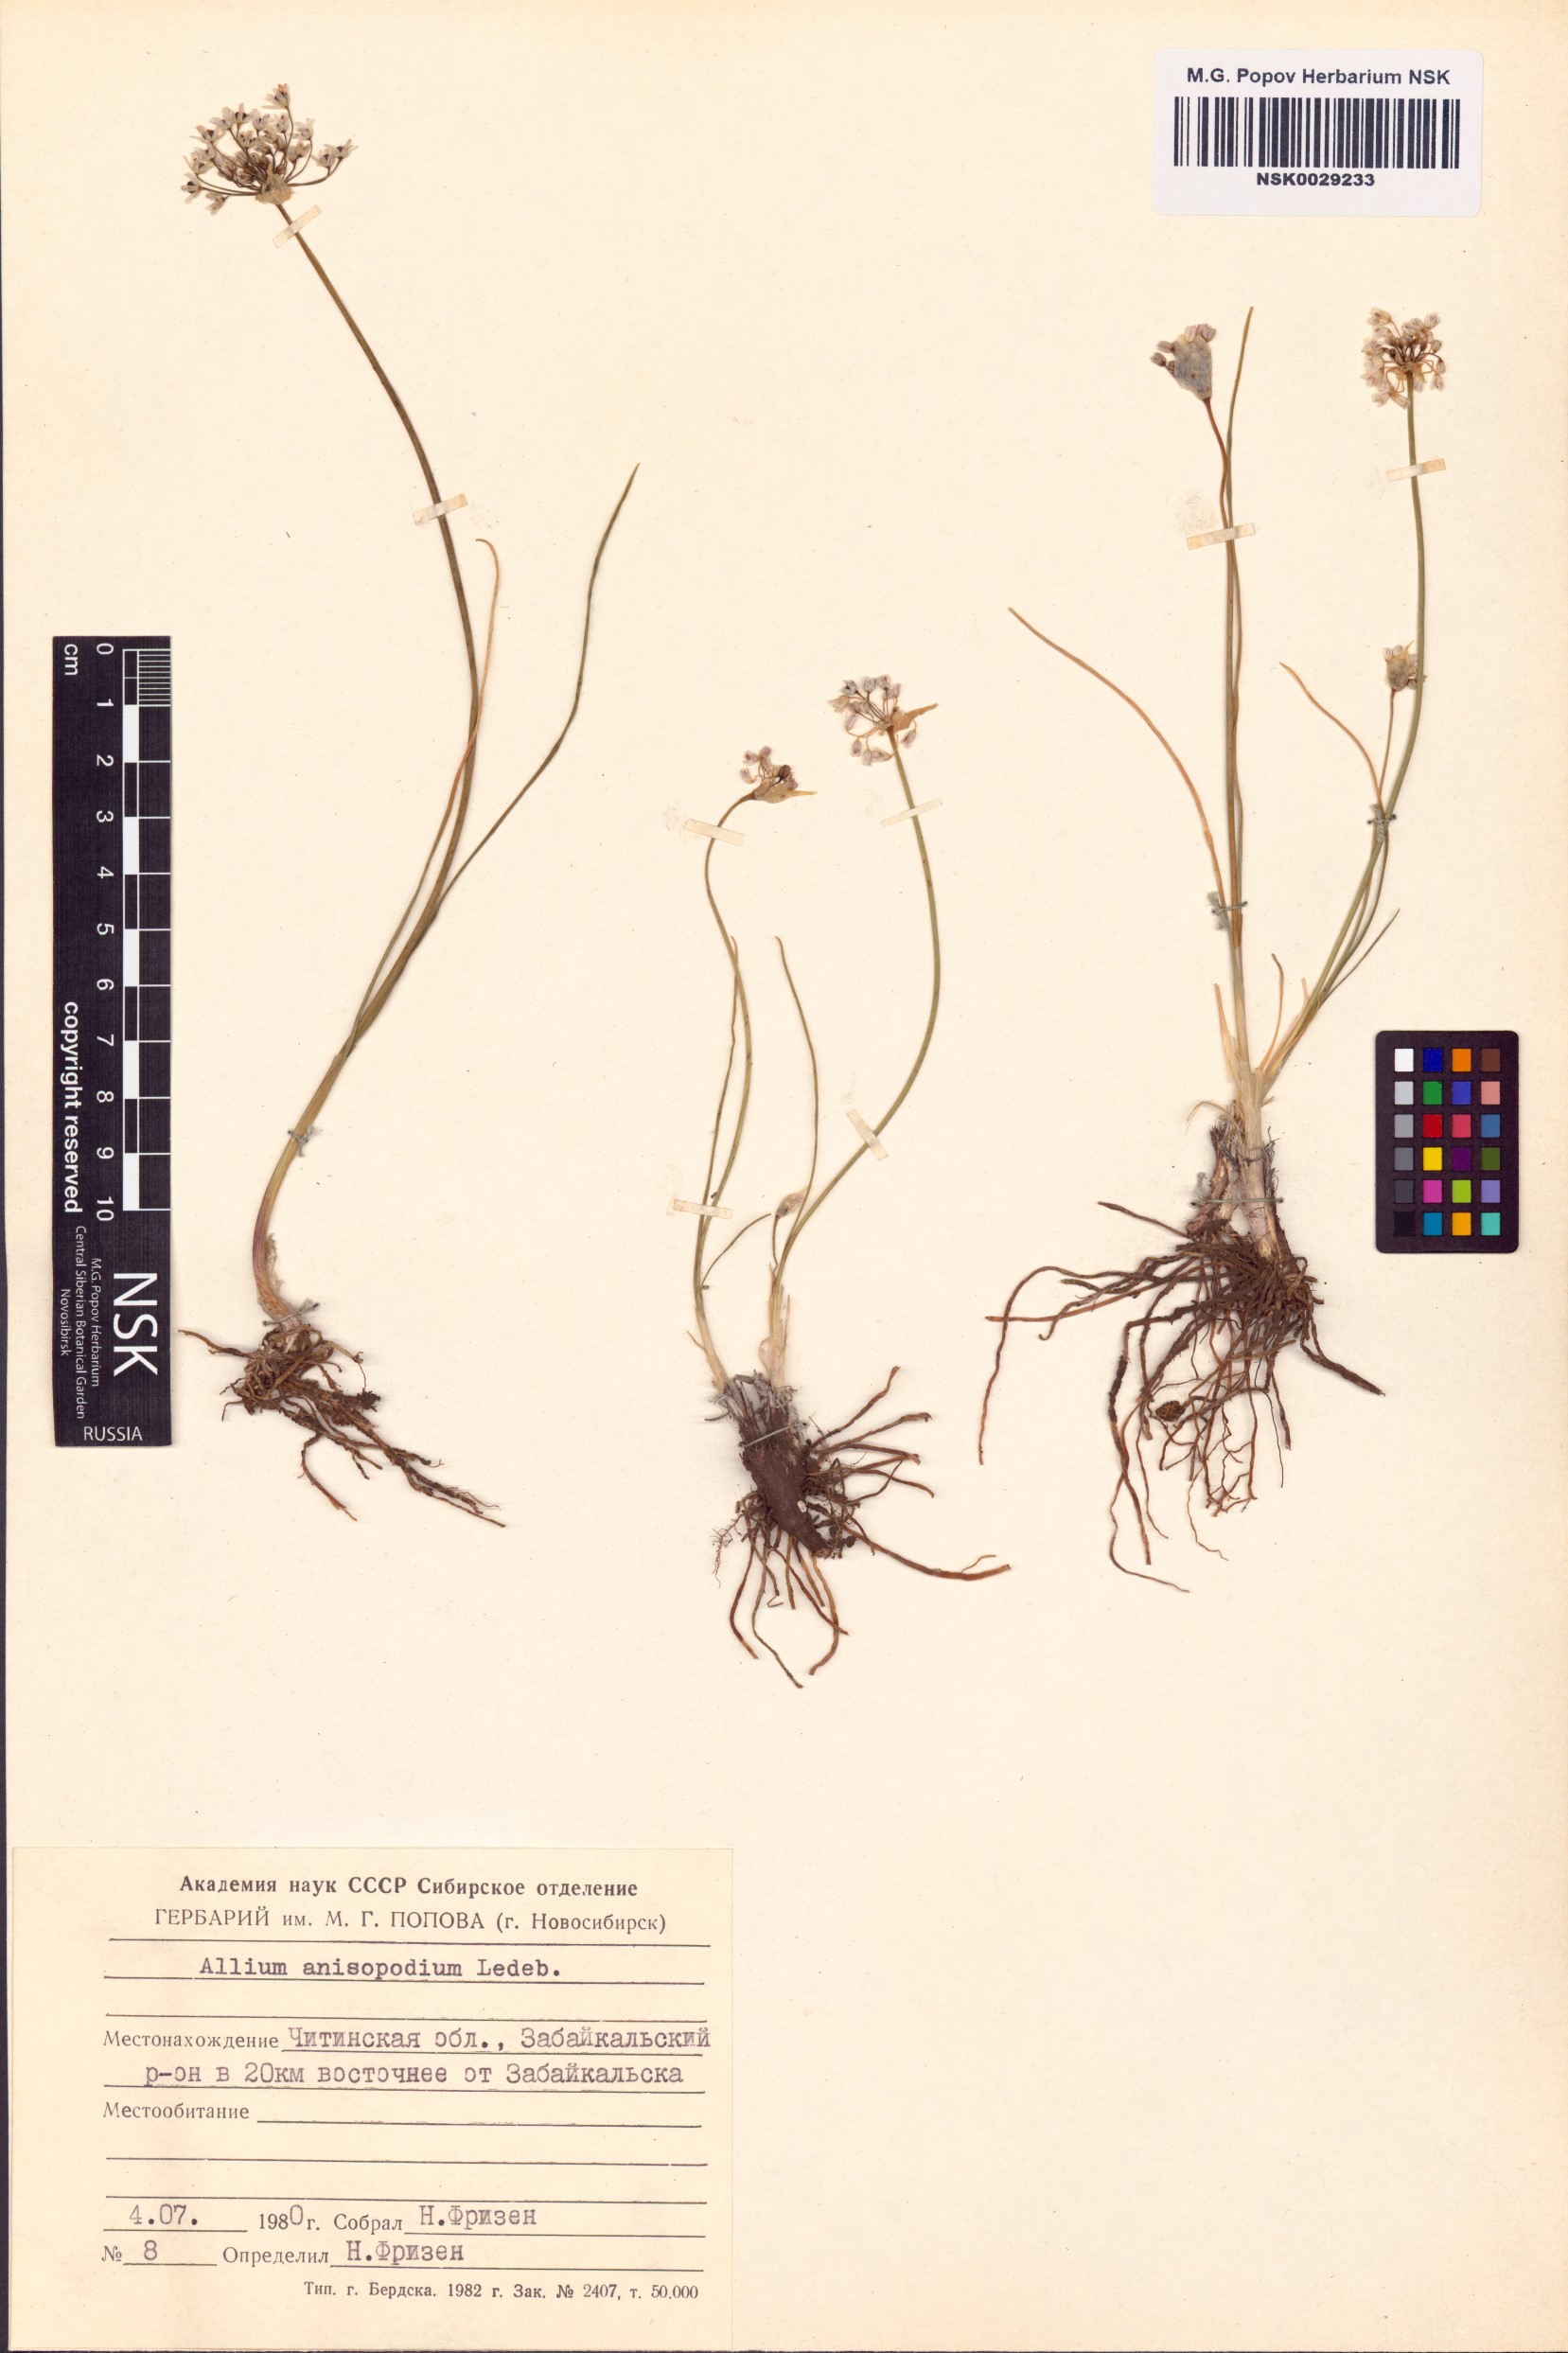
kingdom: Plantae
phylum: Tracheophyta
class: Liliopsida
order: Asparagales
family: Amaryllidaceae
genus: Allium
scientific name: Allium anisopodium
